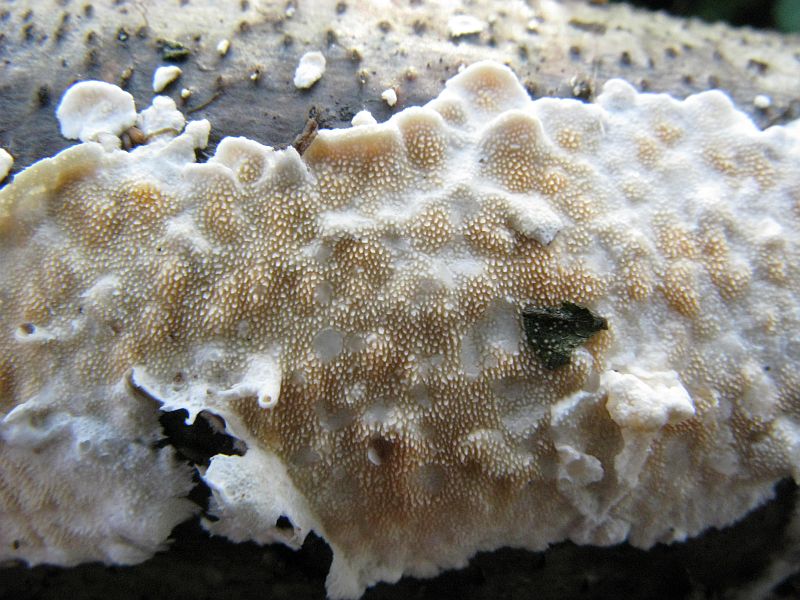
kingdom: Fungi
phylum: Basidiomycota
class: Agaricomycetes
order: Polyporales
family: Steccherinaceae
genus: Steccherinum
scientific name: Steccherinum ochraceum
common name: almindelig skønpig
